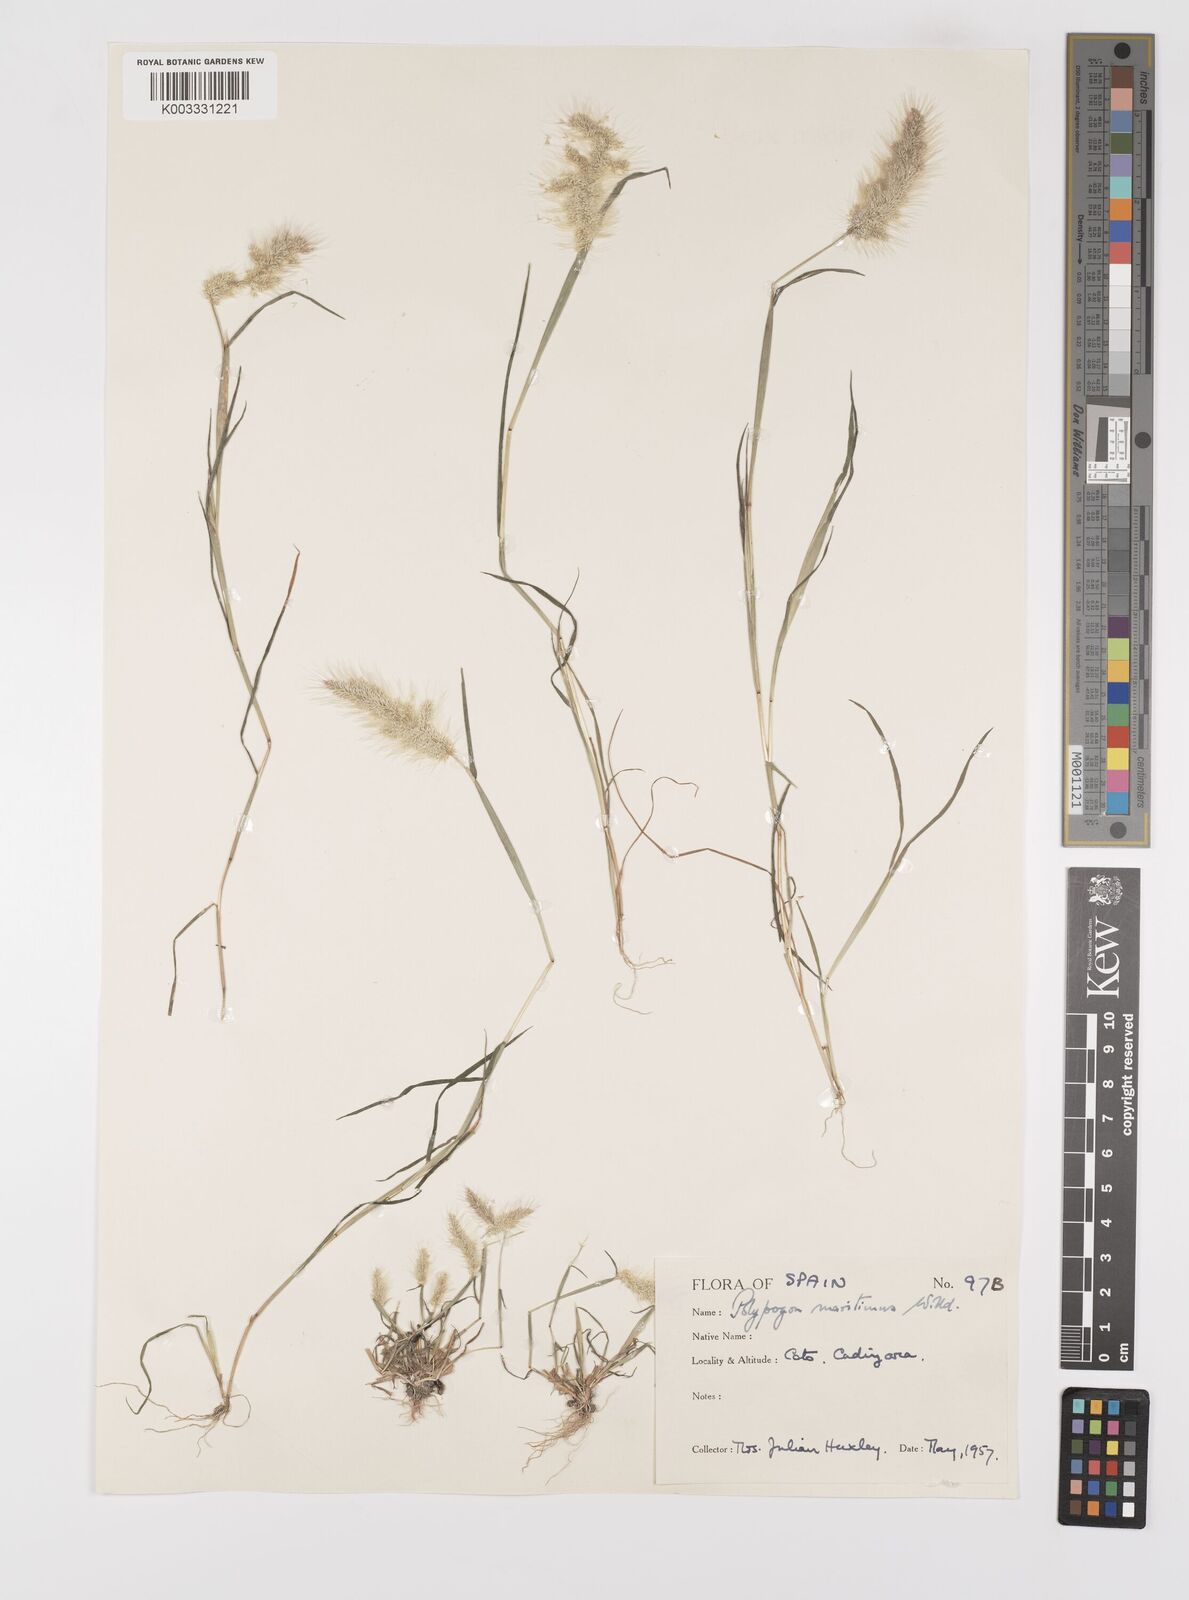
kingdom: Plantae
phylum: Tracheophyta
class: Liliopsida
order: Poales
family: Poaceae
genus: Polypogon
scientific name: Polypogon maritimus
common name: Mediterranean rabbitsfoot grass
